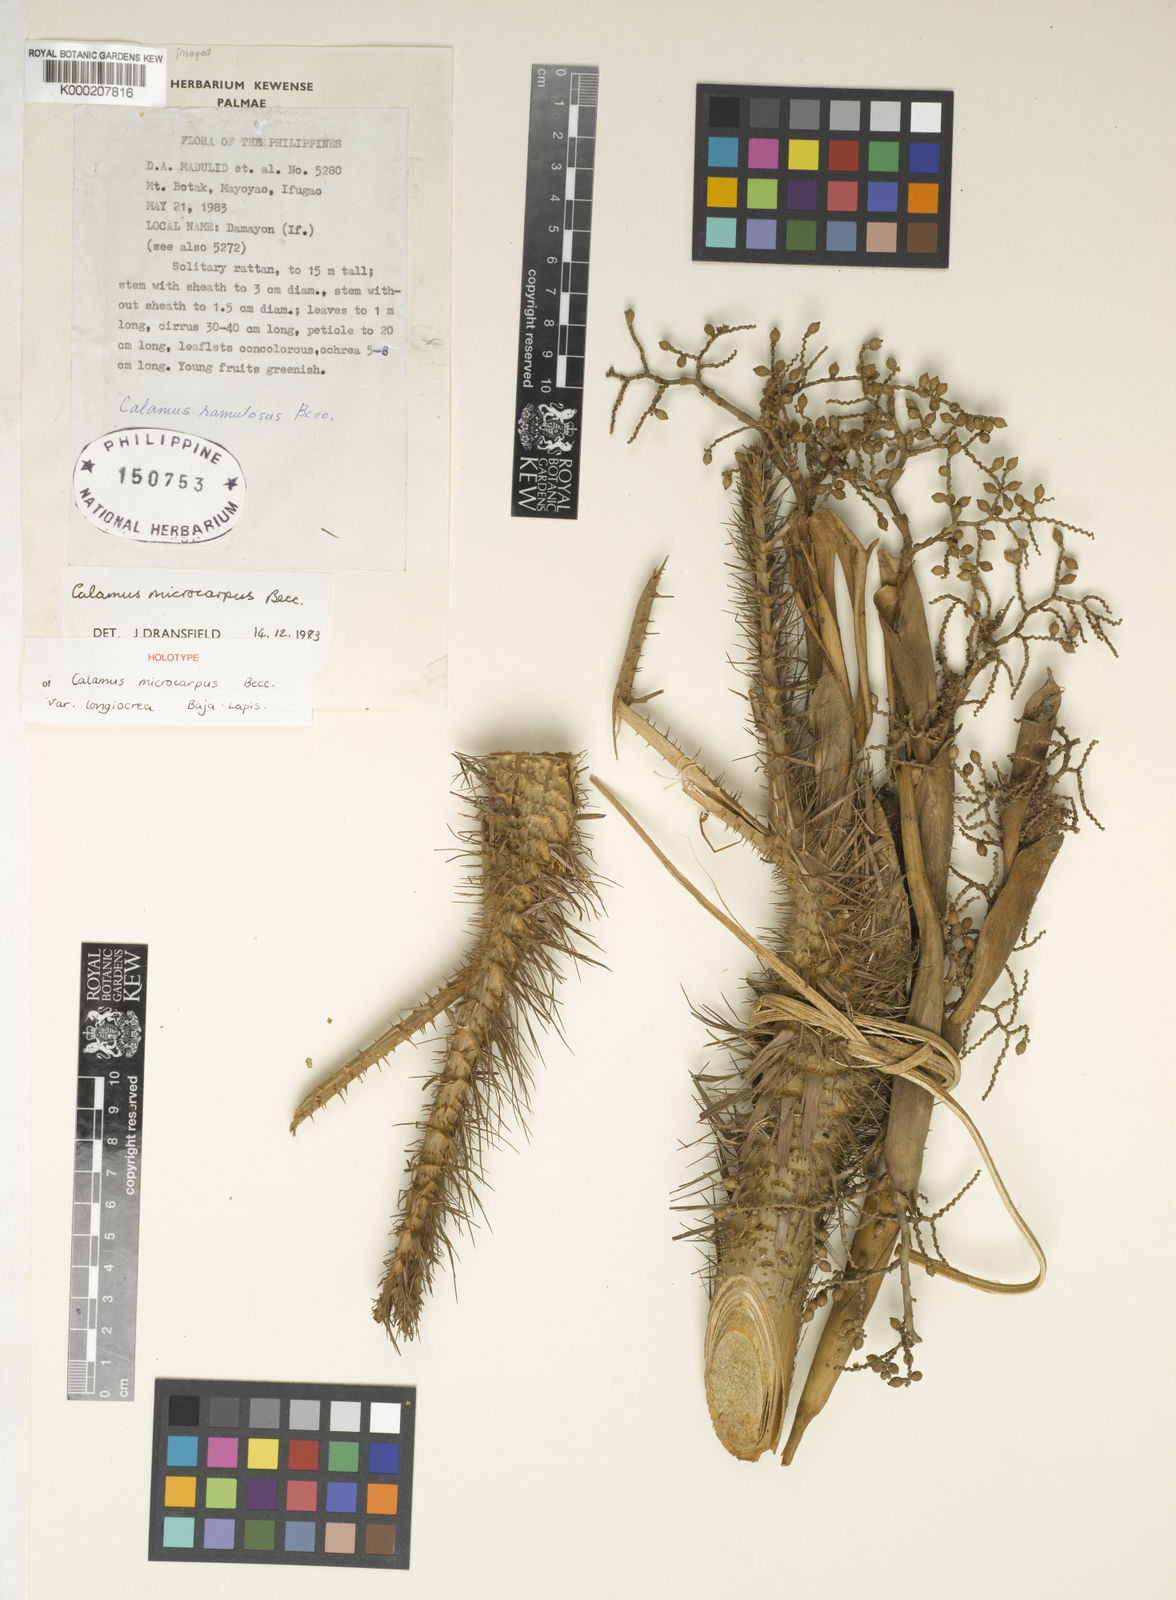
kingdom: Plantae
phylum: Tracheophyta
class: Liliopsida
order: Arecales
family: Arecaceae
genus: Calamus
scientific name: Calamus siphonospathus
